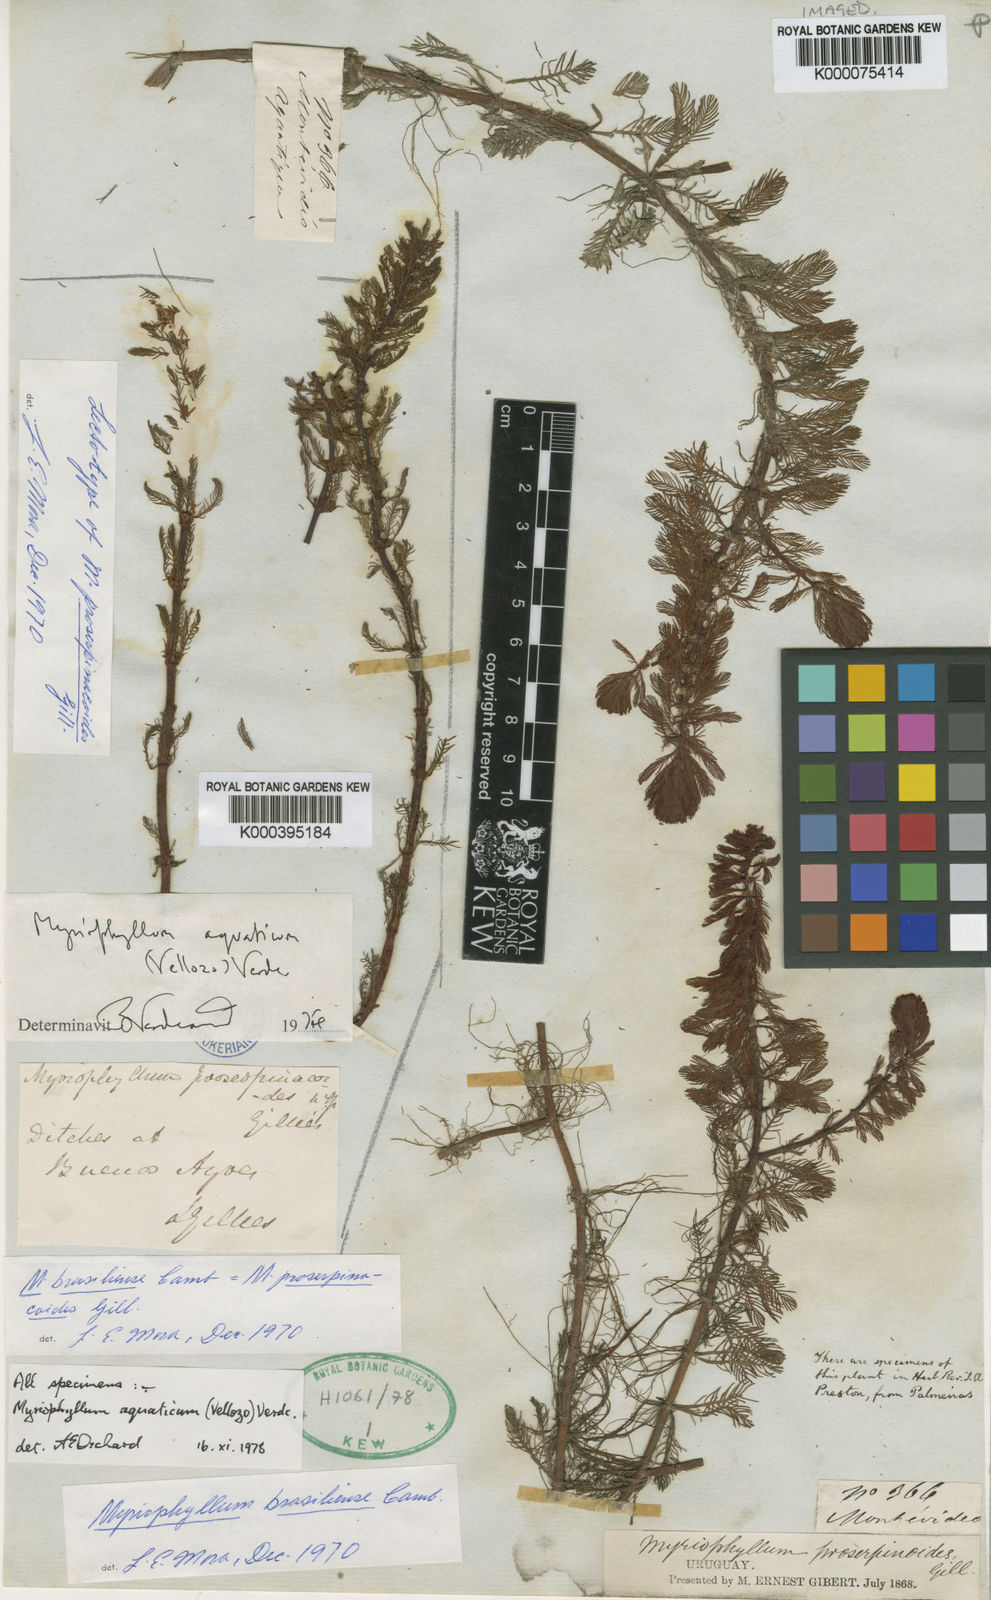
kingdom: Plantae
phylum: Tracheophyta
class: Magnoliopsida
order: Saxifragales
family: Haloragaceae
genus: Myriophyllum
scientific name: Myriophyllum aquaticum
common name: Parrot's feather
